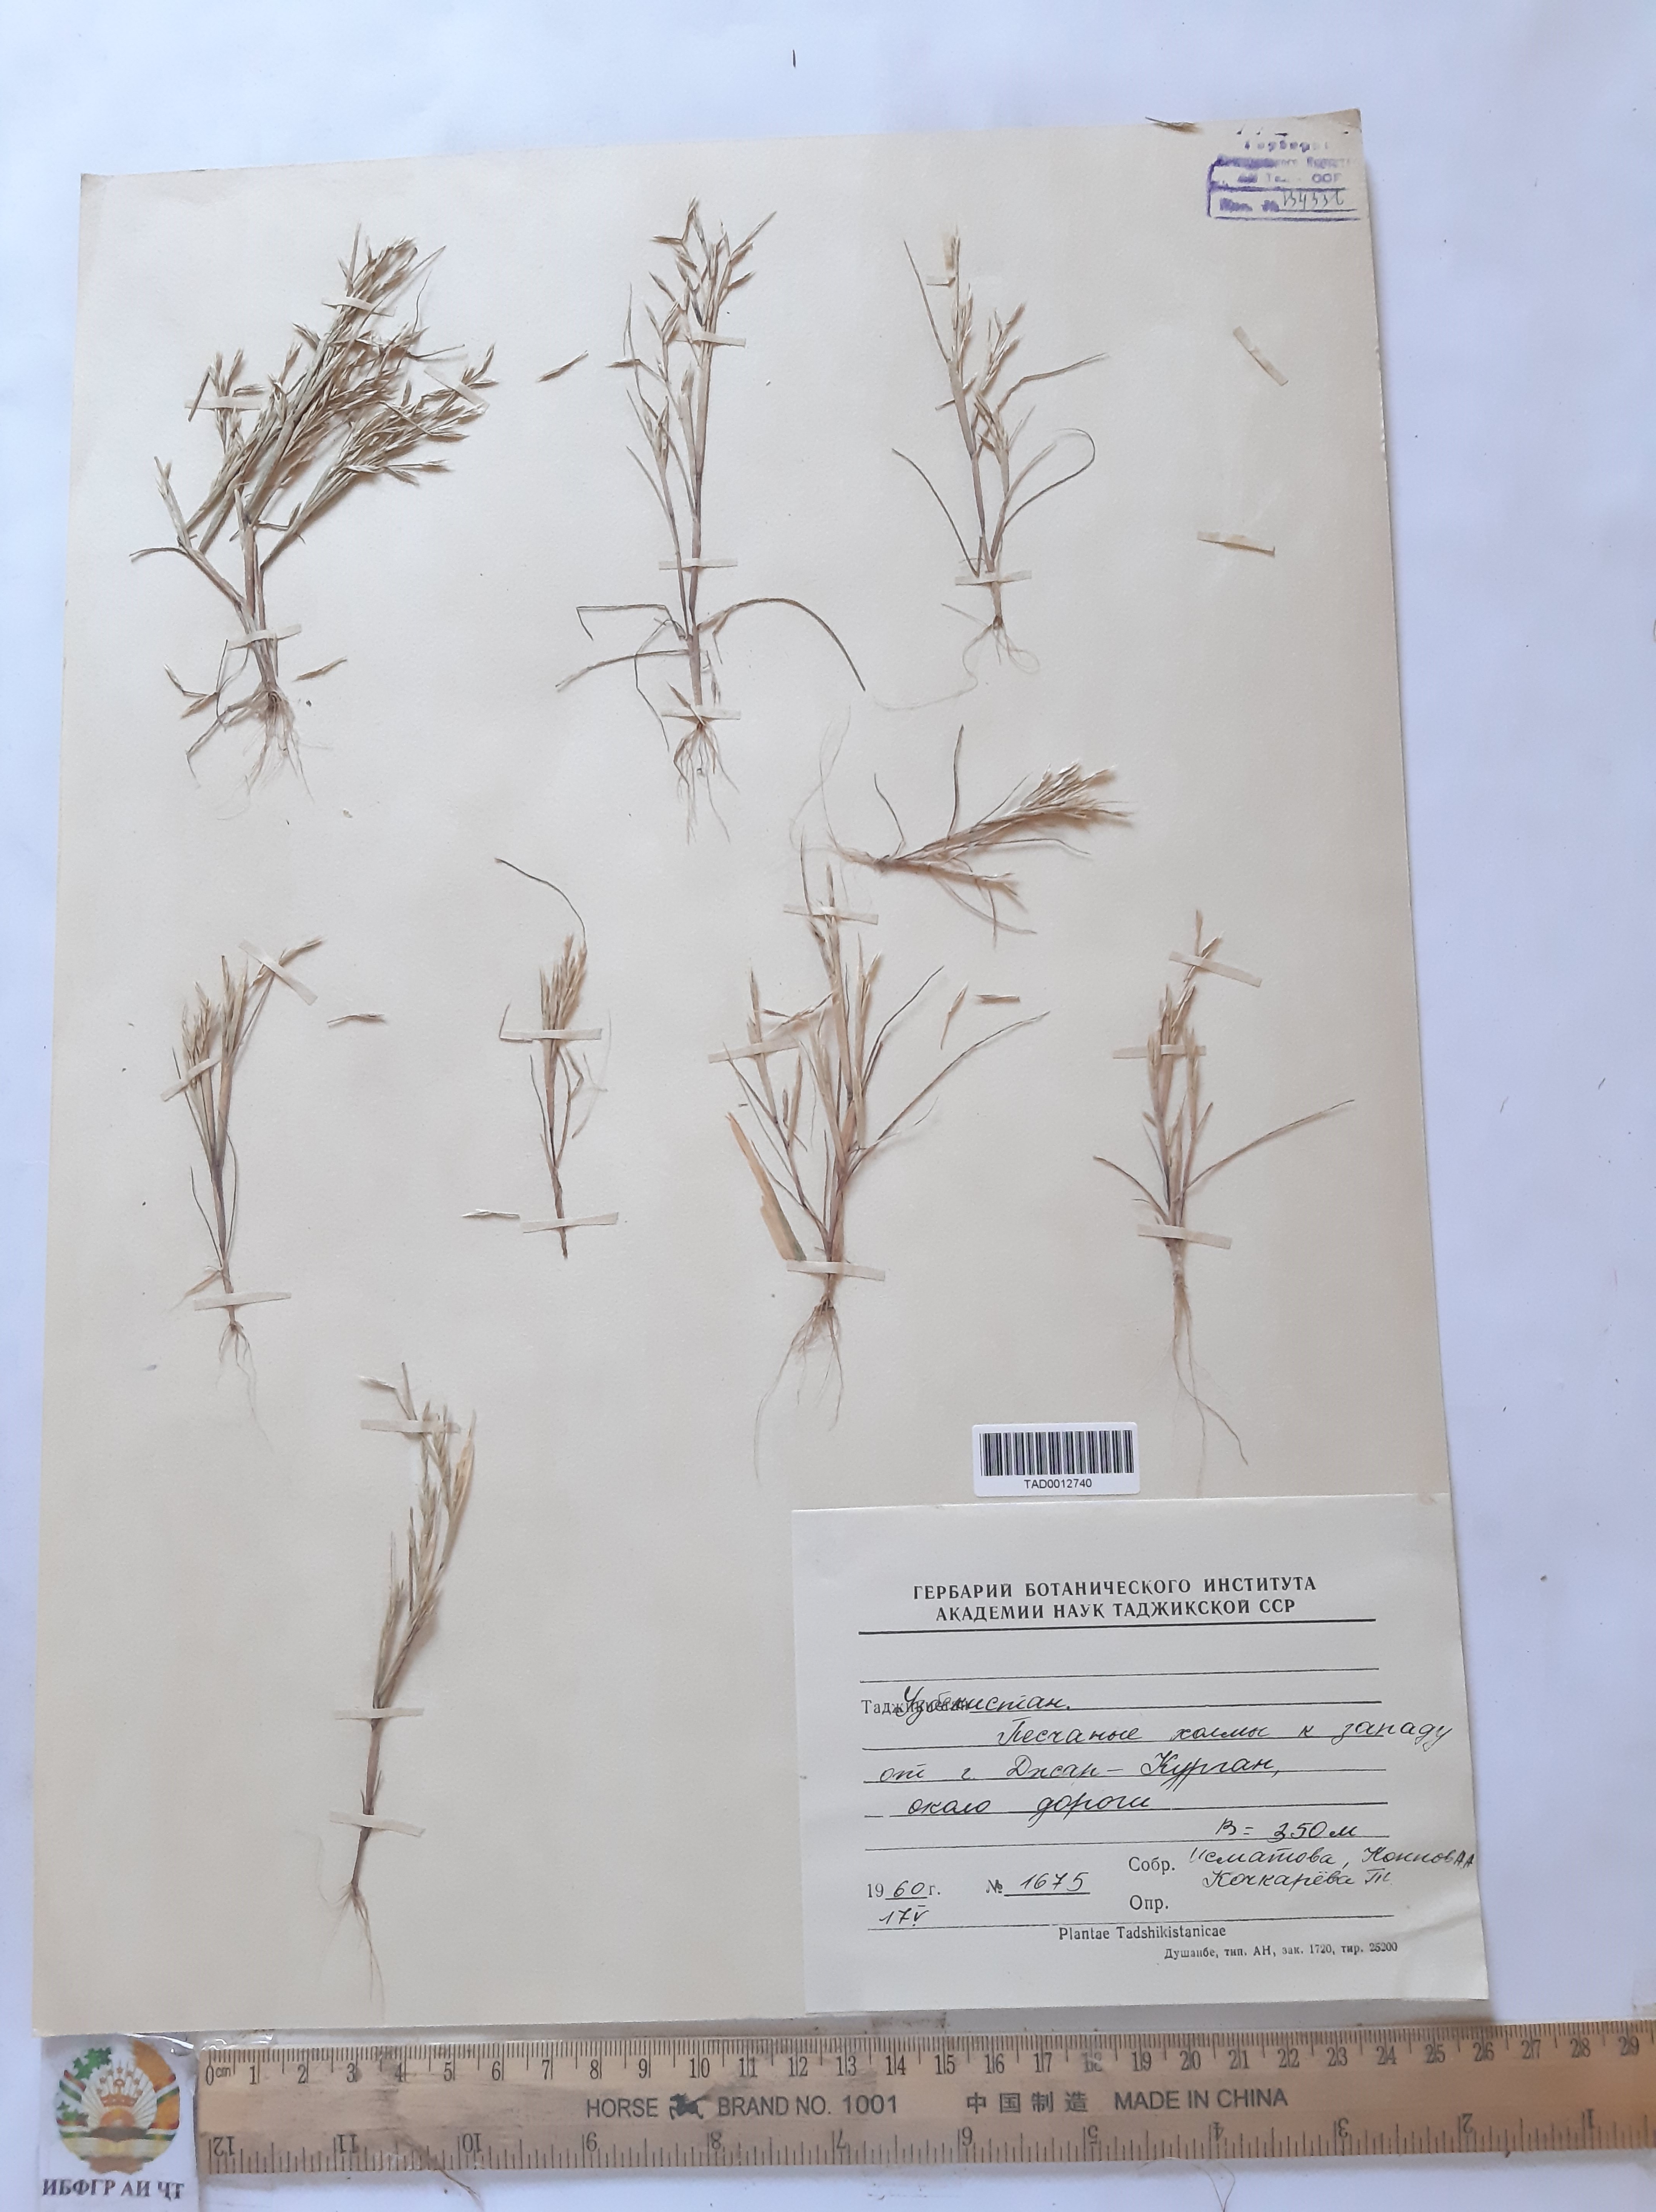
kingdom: Plantae
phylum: Tracheophyta
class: Liliopsida
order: Poales
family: Poaceae
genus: Cutandia
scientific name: Cutandia memphitica
